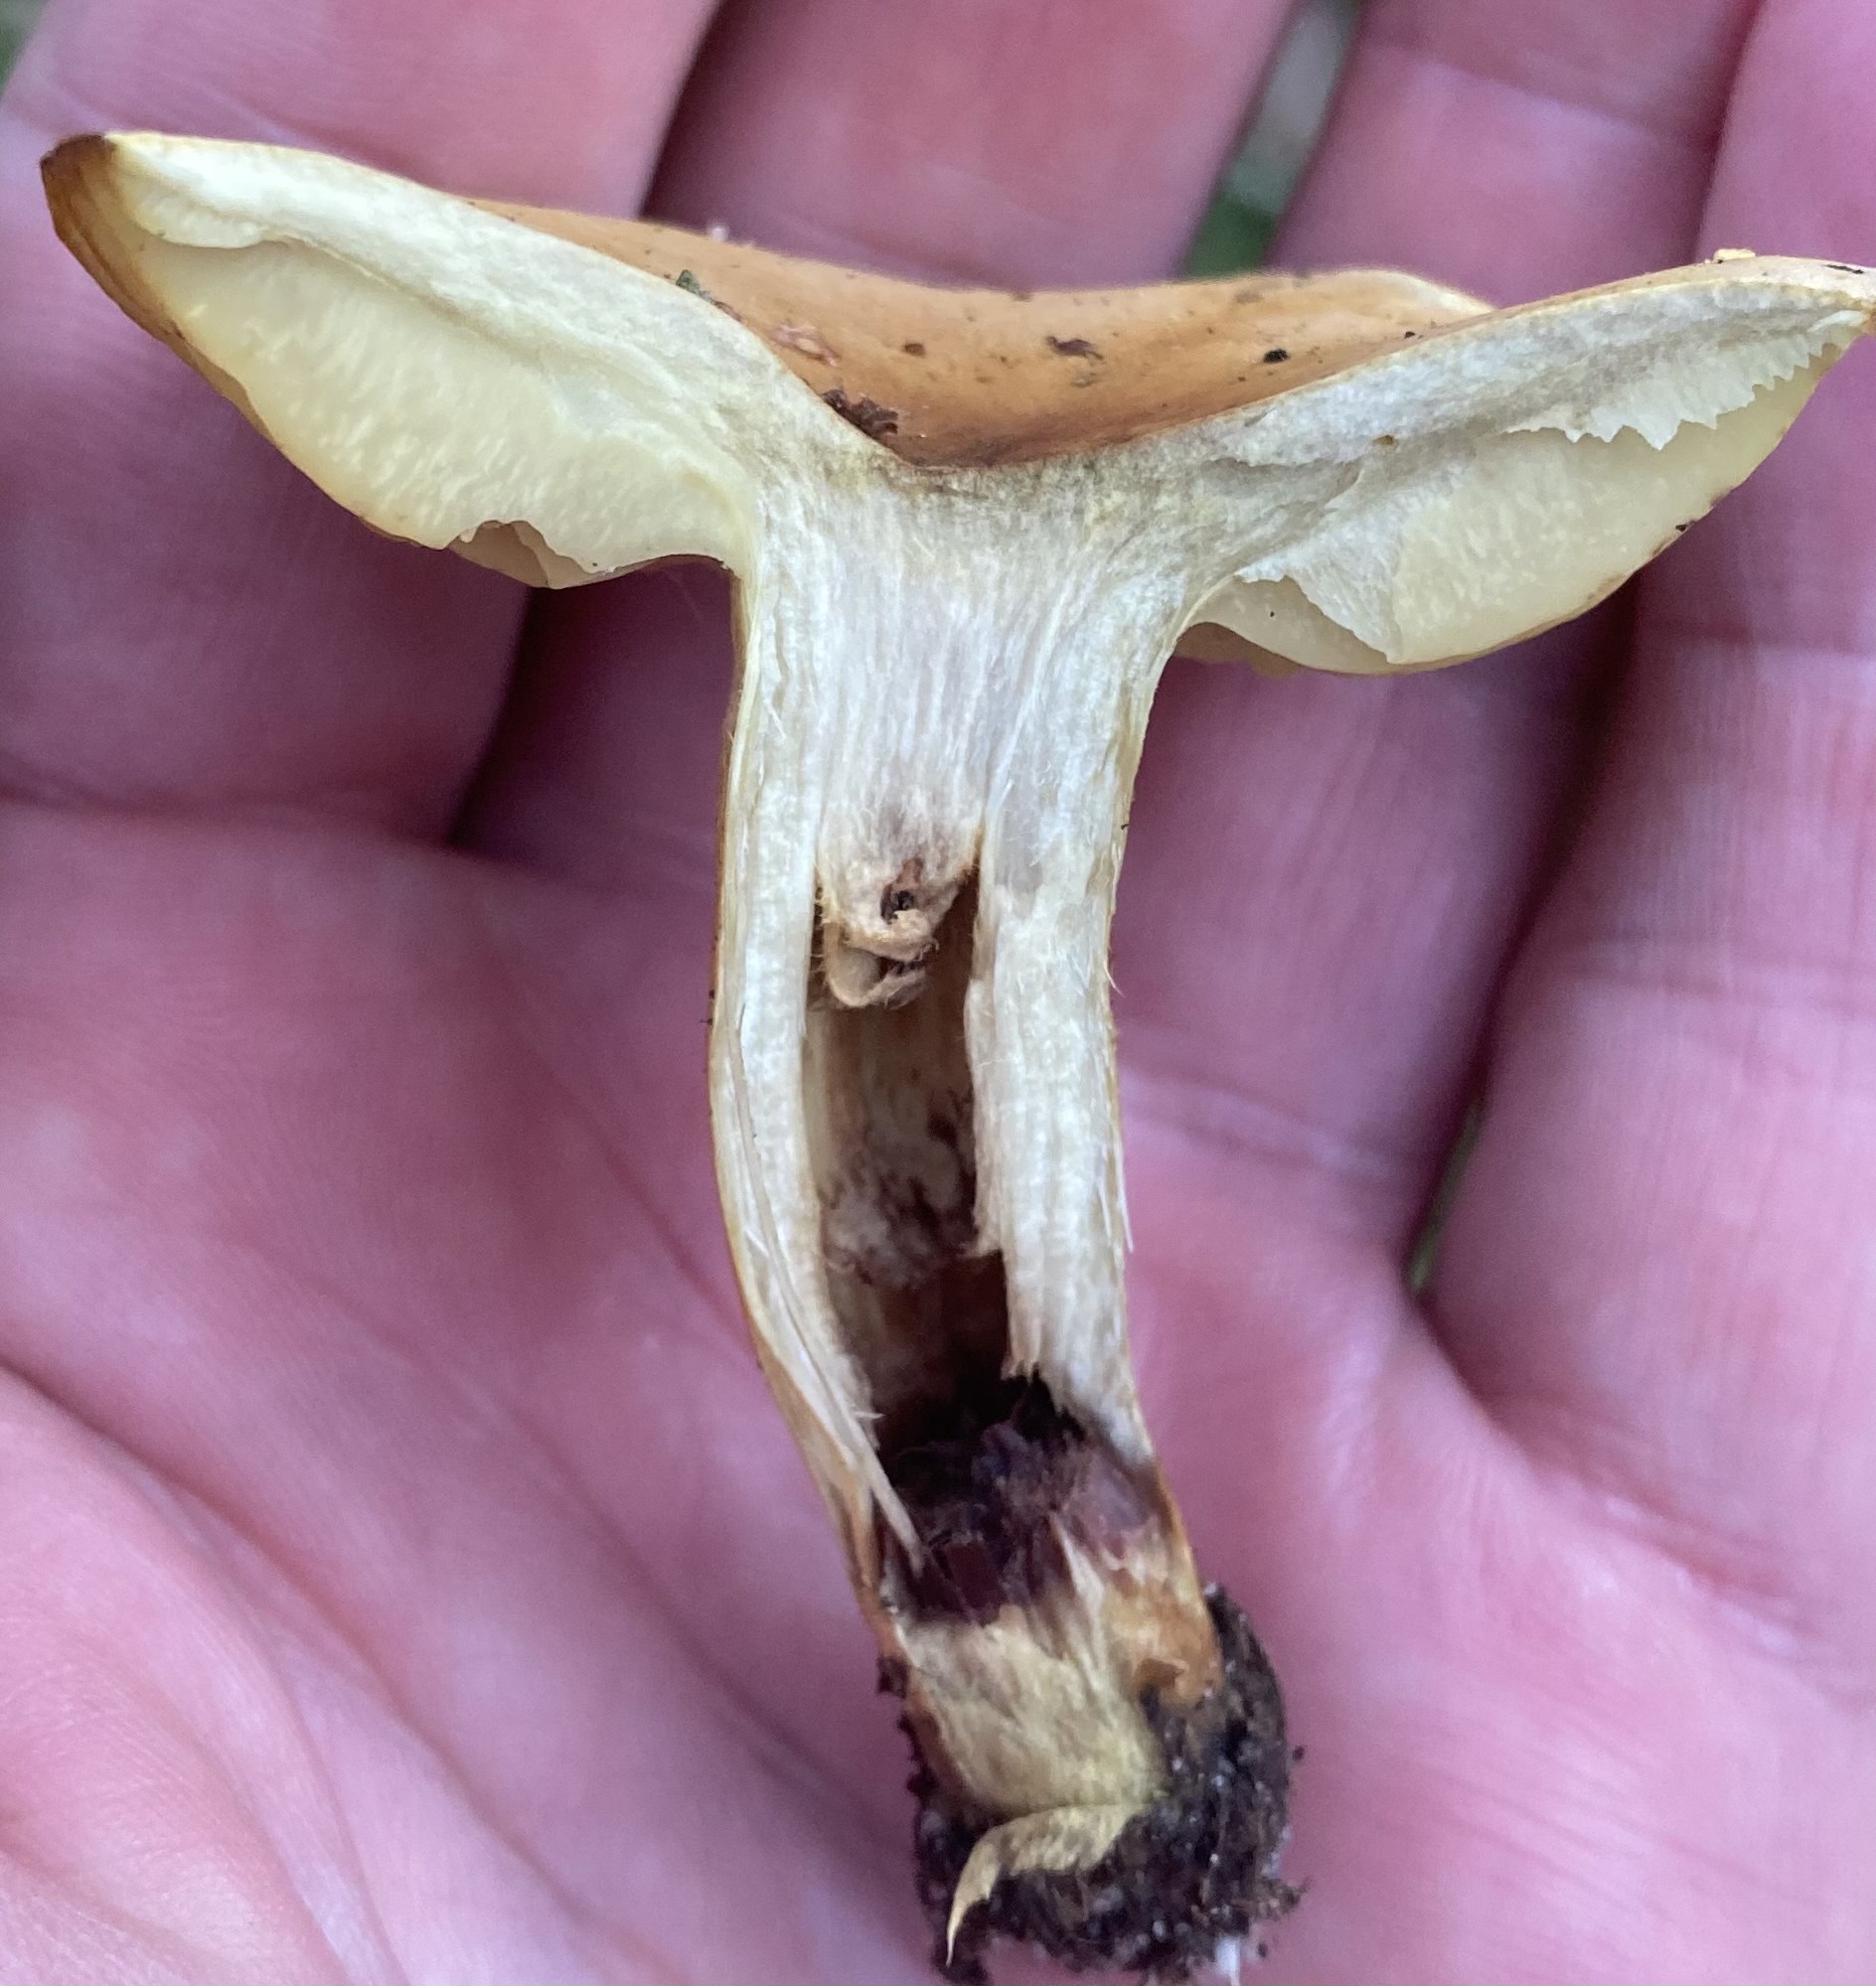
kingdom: Fungi
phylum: Basidiomycota
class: Agaricomycetes
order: Agaricales
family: Tricholomataceae
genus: Tricholoma
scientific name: Tricholoma sulphureum
